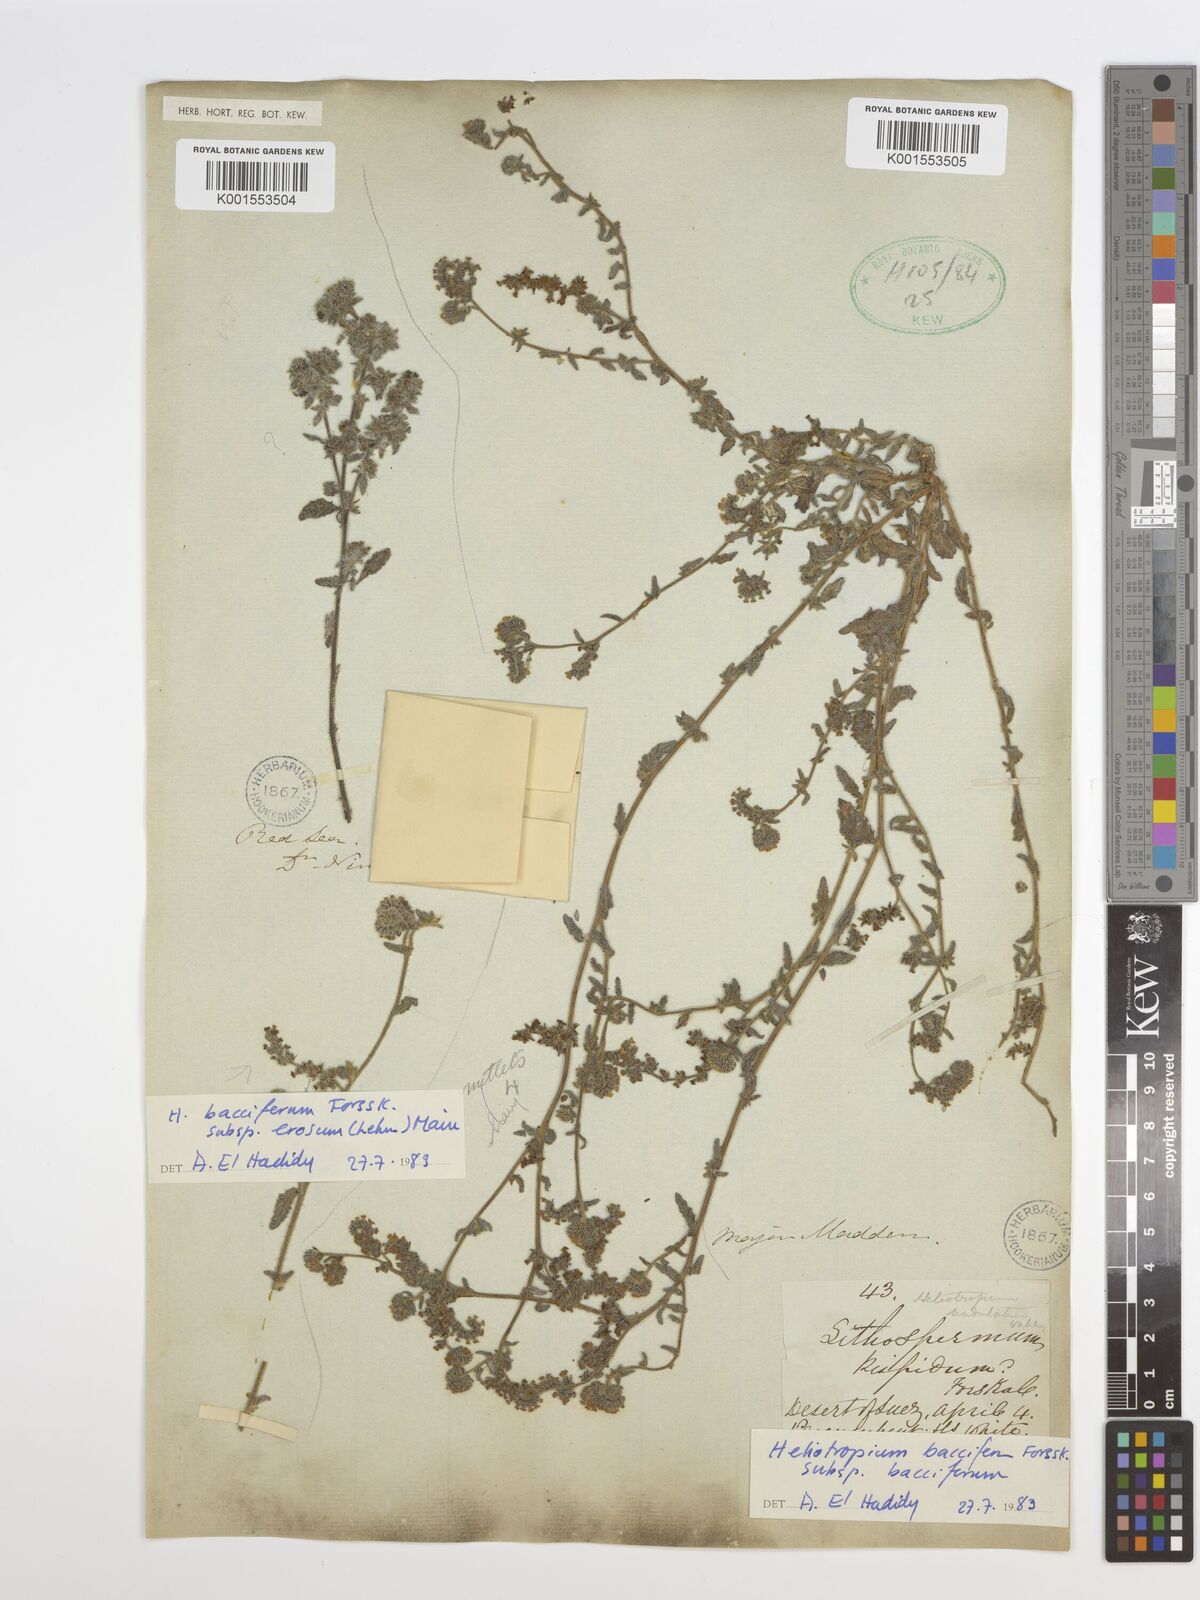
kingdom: Plantae
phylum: Tracheophyta
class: Magnoliopsida
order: Boraginales
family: Heliotropiaceae
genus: Heliotropium
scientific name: Heliotropium bacciferum
